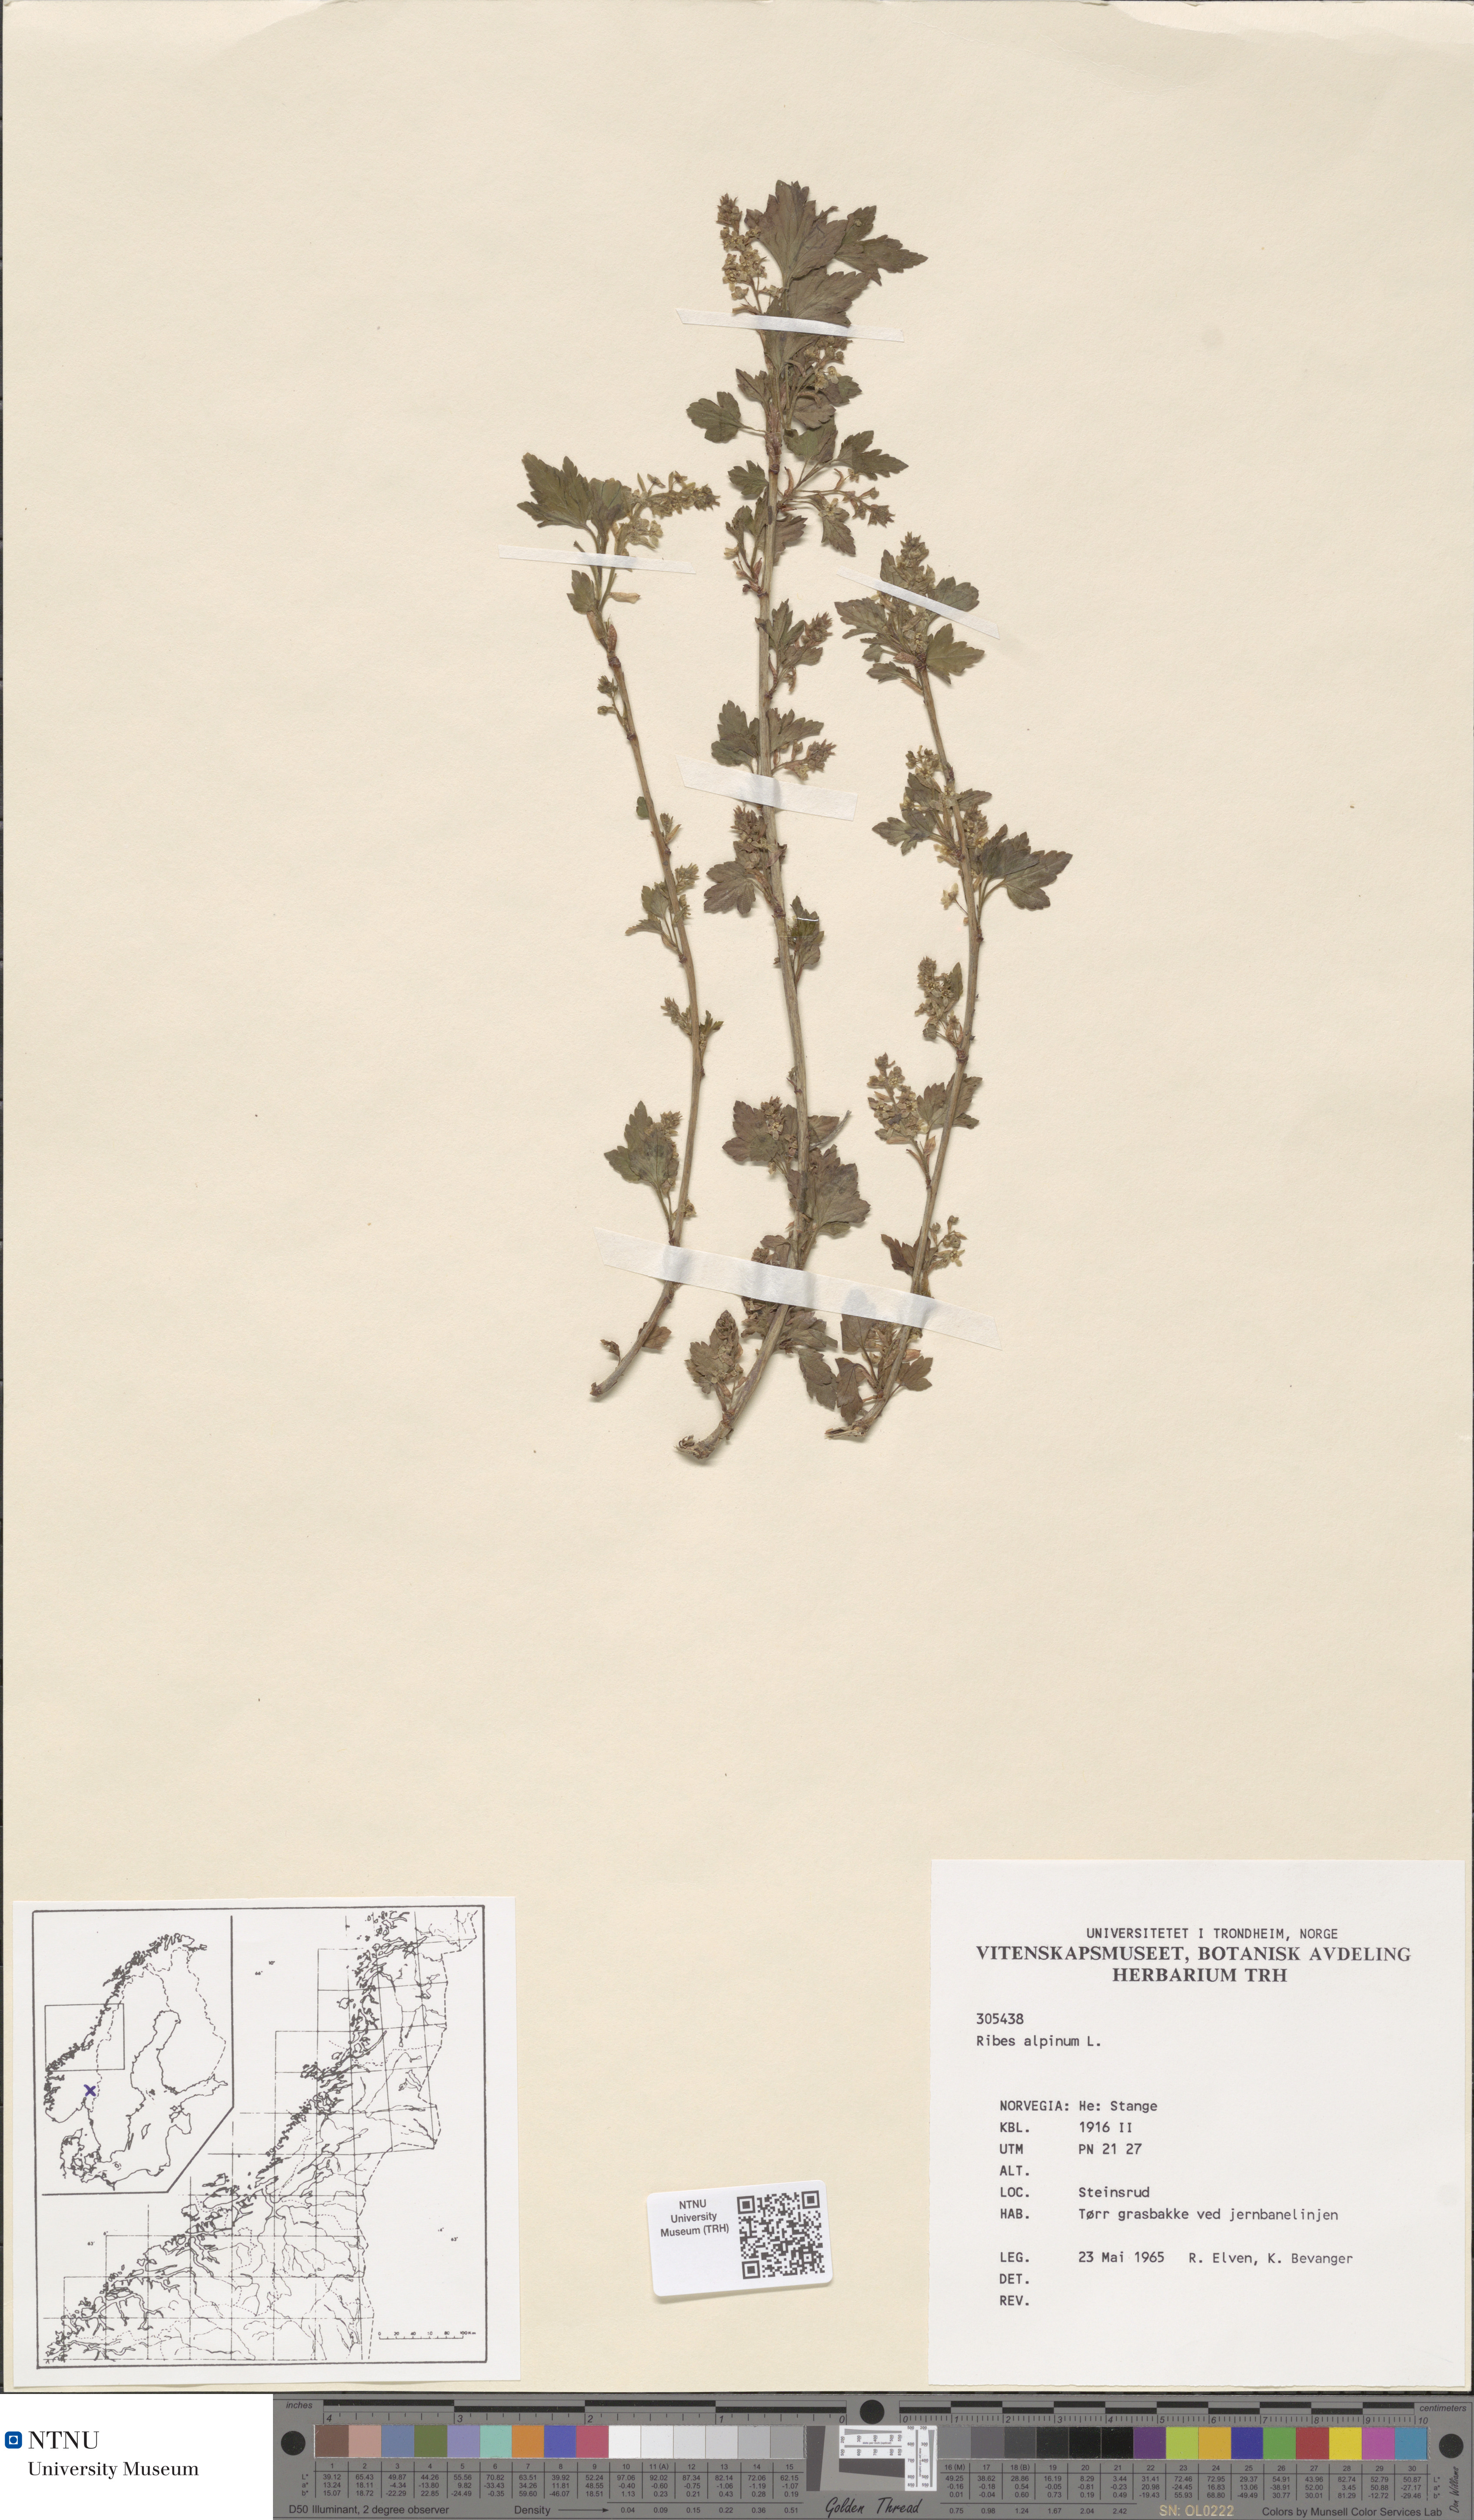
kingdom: Plantae
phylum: Tracheophyta
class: Magnoliopsida
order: Saxifragales
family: Grossulariaceae
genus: Ribes
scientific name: Ribes alpinum
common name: Alpine currant
